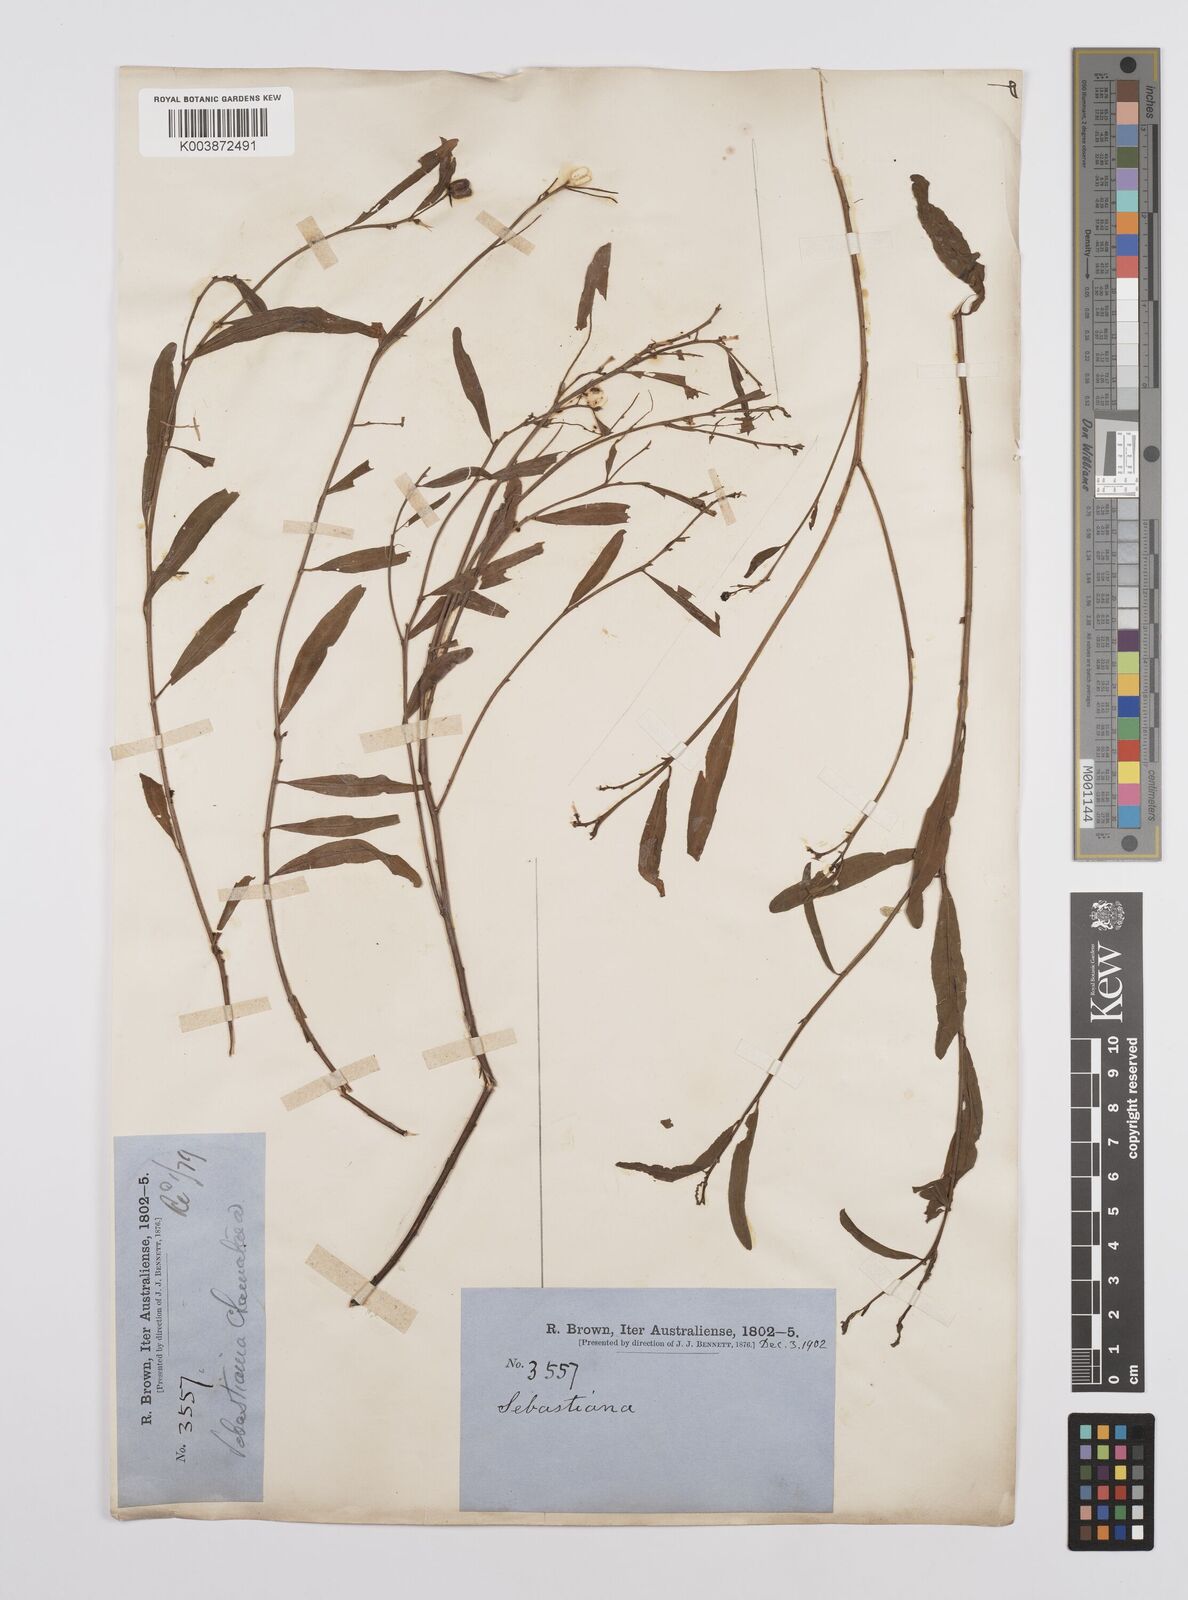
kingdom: Plantae
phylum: Tracheophyta
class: Magnoliopsida
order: Malpighiales
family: Euphorbiaceae
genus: Microstachys
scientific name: Microstachys chamaelea
